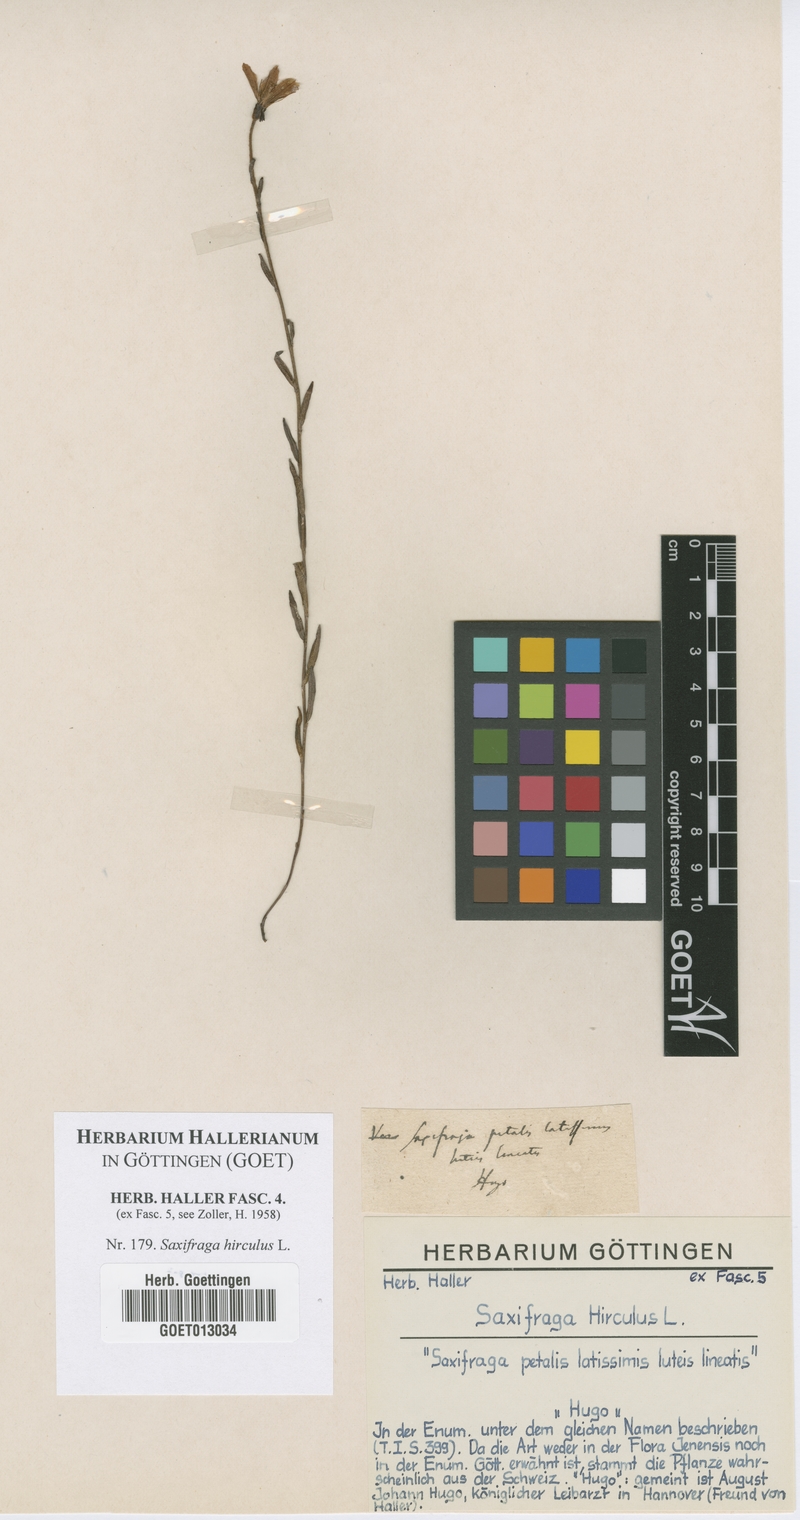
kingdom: Plantae
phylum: Tracheophyta
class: Magnoliopsida
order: Saxifragales
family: Saxifragaceae
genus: Saxifraga
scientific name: Saxifraga hirculus
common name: Yellow marsh saxifrage
